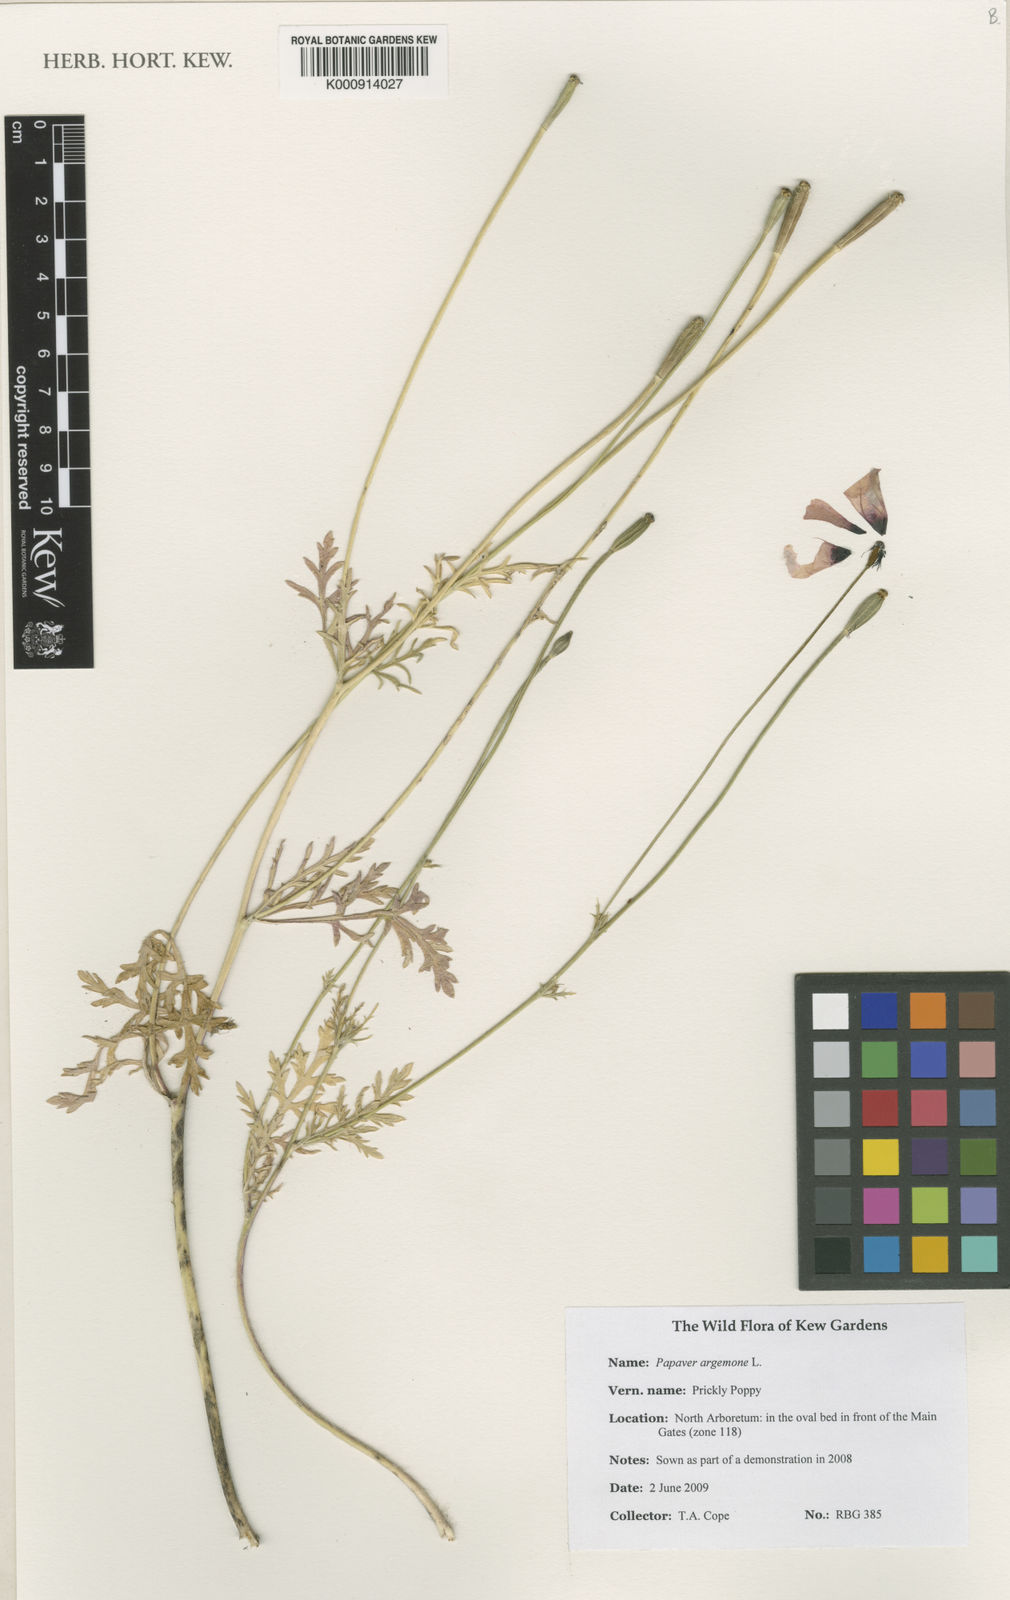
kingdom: Plantae
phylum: Tracheophyta
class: Magnoliopsida
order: Ranunculales
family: Papaveraceae
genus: Roemeria
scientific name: Roemeria argemone
